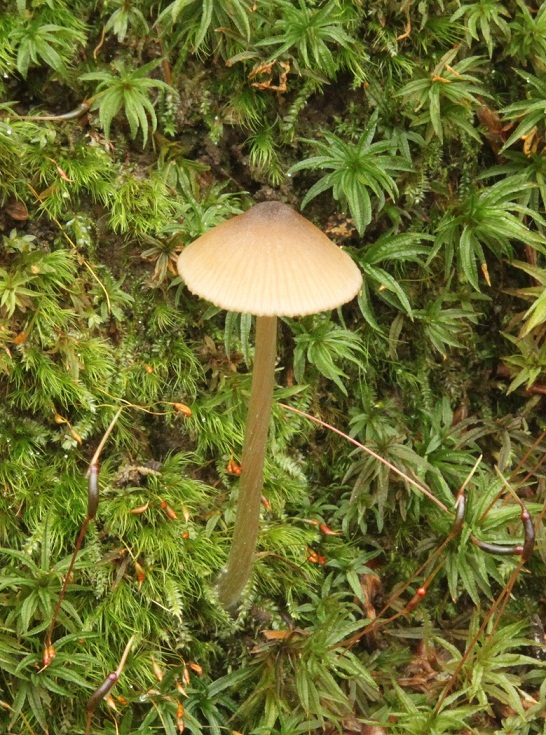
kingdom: Fungi
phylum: Basidiomycota
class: Agaricomycetes
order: Agaricales
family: Entolomataceae
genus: Entoloma
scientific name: Entoloma cetratum
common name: voks-rødblad
